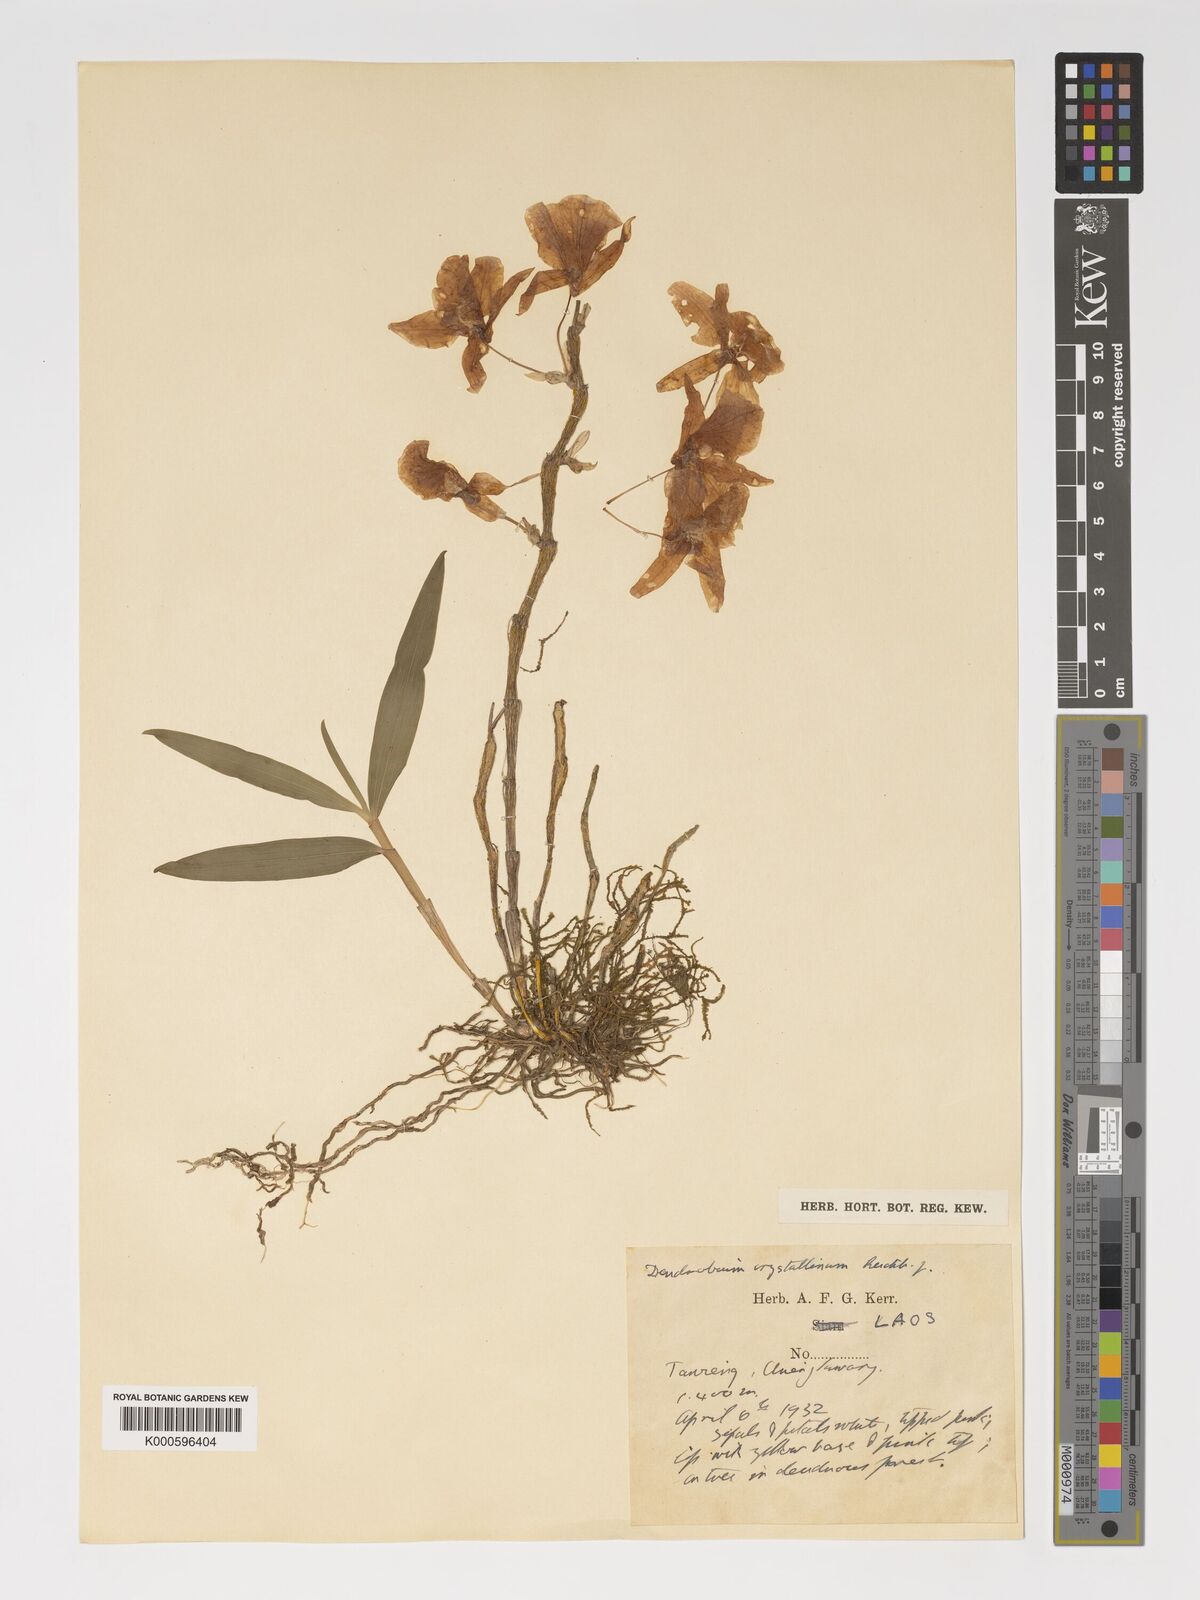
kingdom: Plantae
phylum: Tracheophyta
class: Liliopsida
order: Asparagales
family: Orchidaceae
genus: Dendrobium
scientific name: Dendrobium crystallinum
